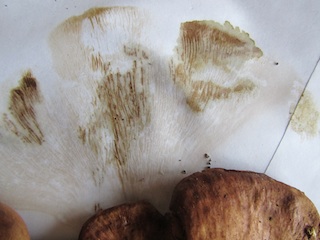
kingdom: Fungi
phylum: Basidiomycota
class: Agaricomycetes
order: Boletales
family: Paxillaceae
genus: Paxillus
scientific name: Paxillus ammoniavirescens
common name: olivensporet netbladhat
